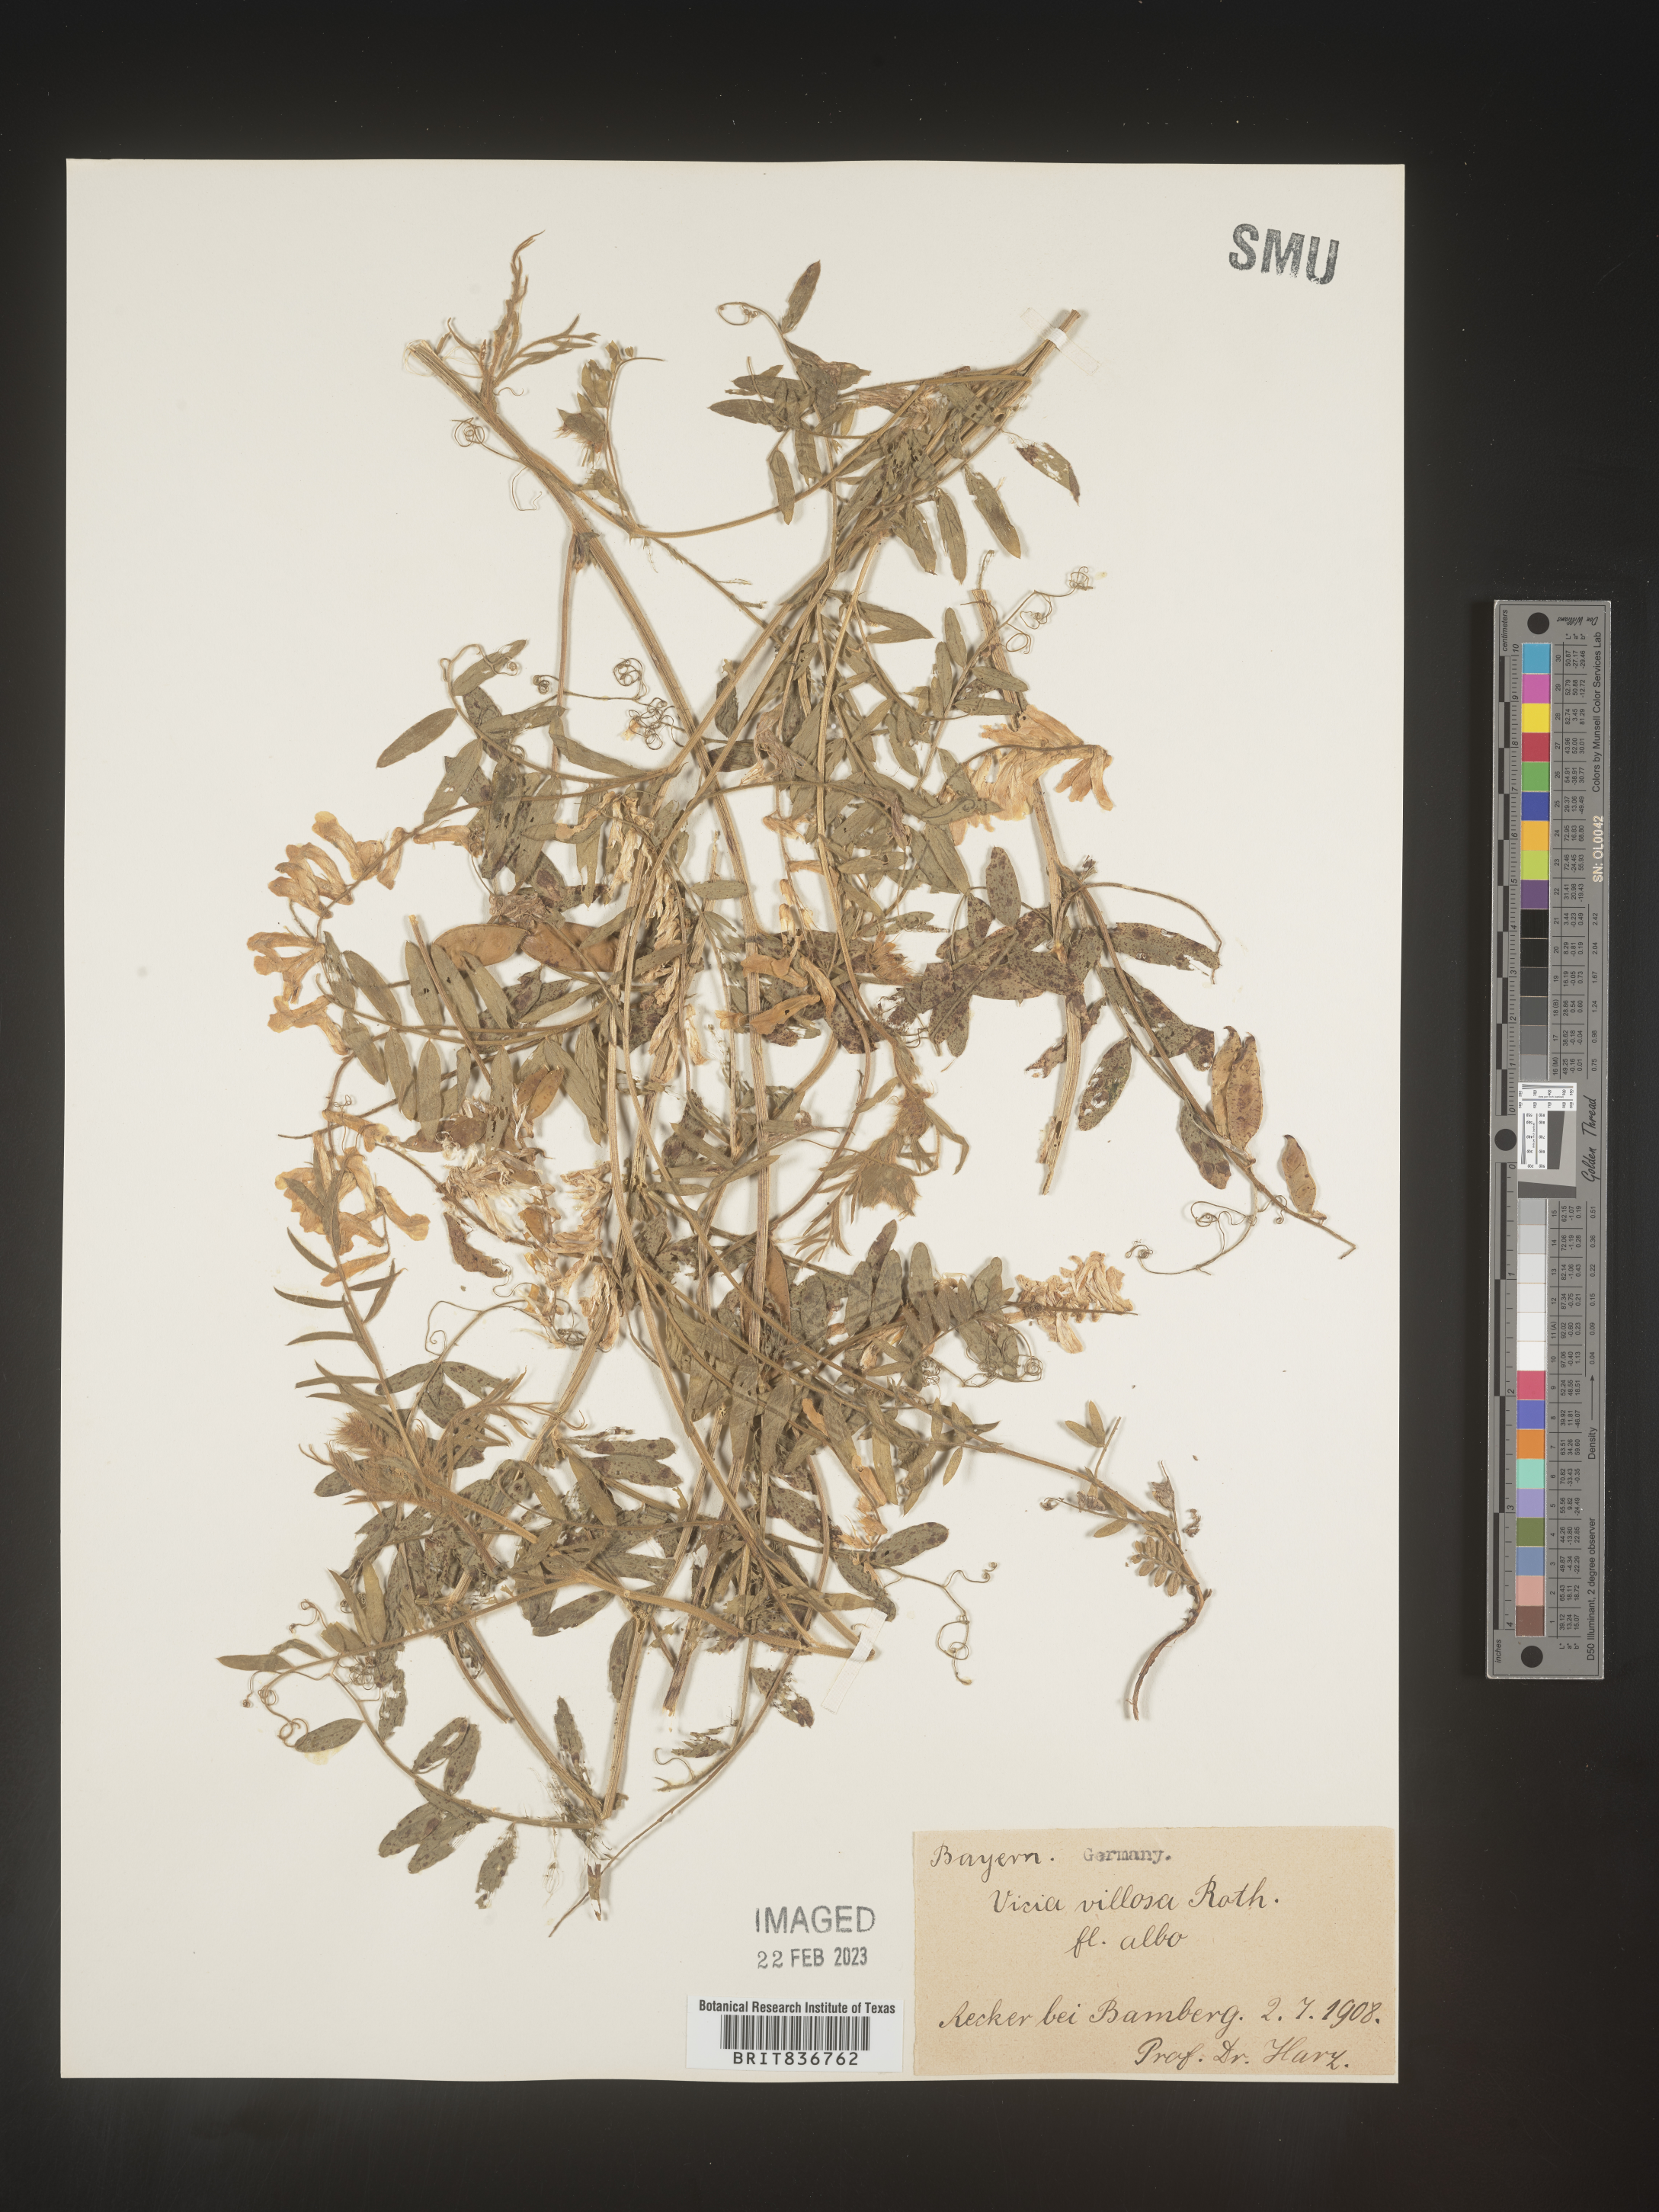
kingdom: Plantae
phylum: Tracheophyta
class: Magnoliopsida
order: Fabales
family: Fabaceae
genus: Vicia
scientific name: Vicia
